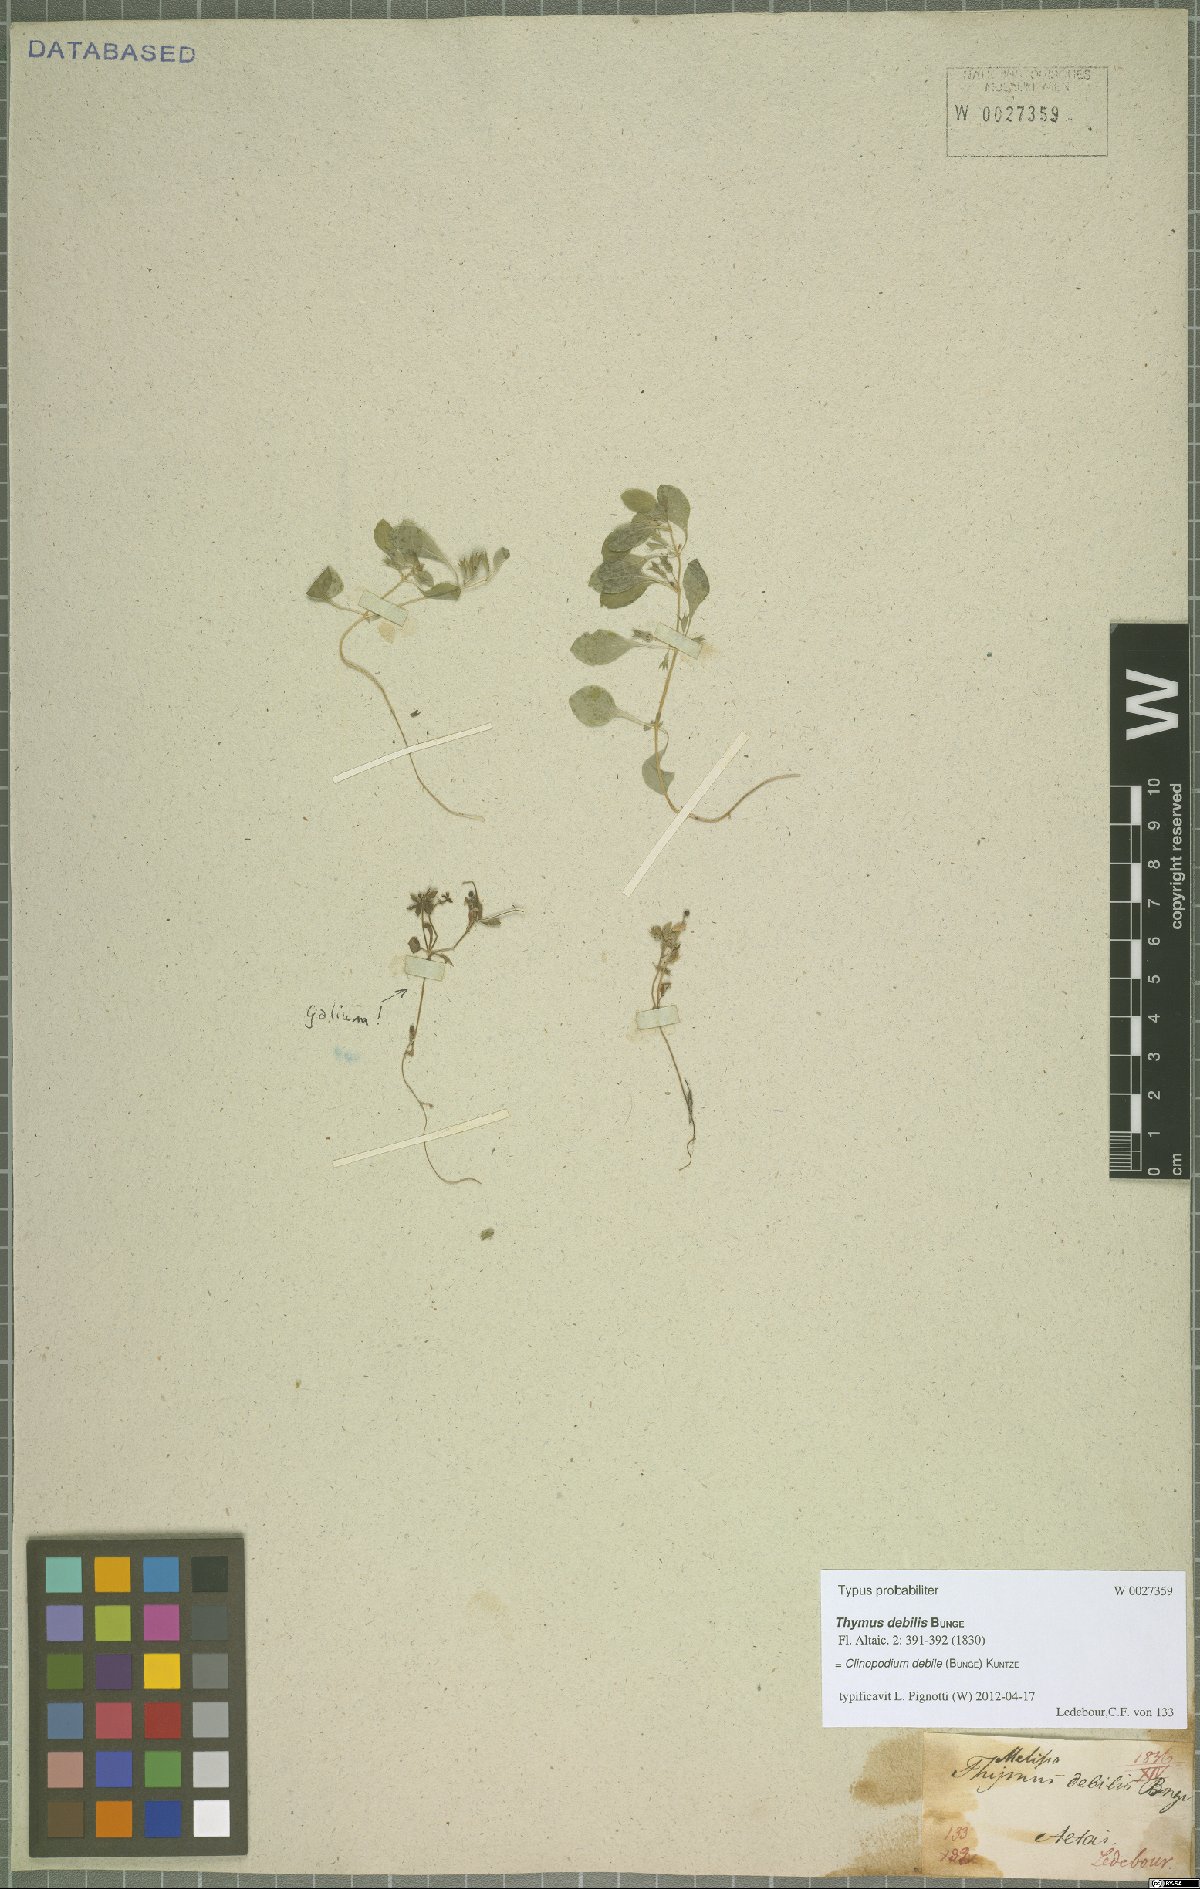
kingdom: Plantae
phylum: Tracheophyta
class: Magnoliopsida
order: Lamiales
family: Lamiaceae
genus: Clinopodium
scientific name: Clinopodium debile
